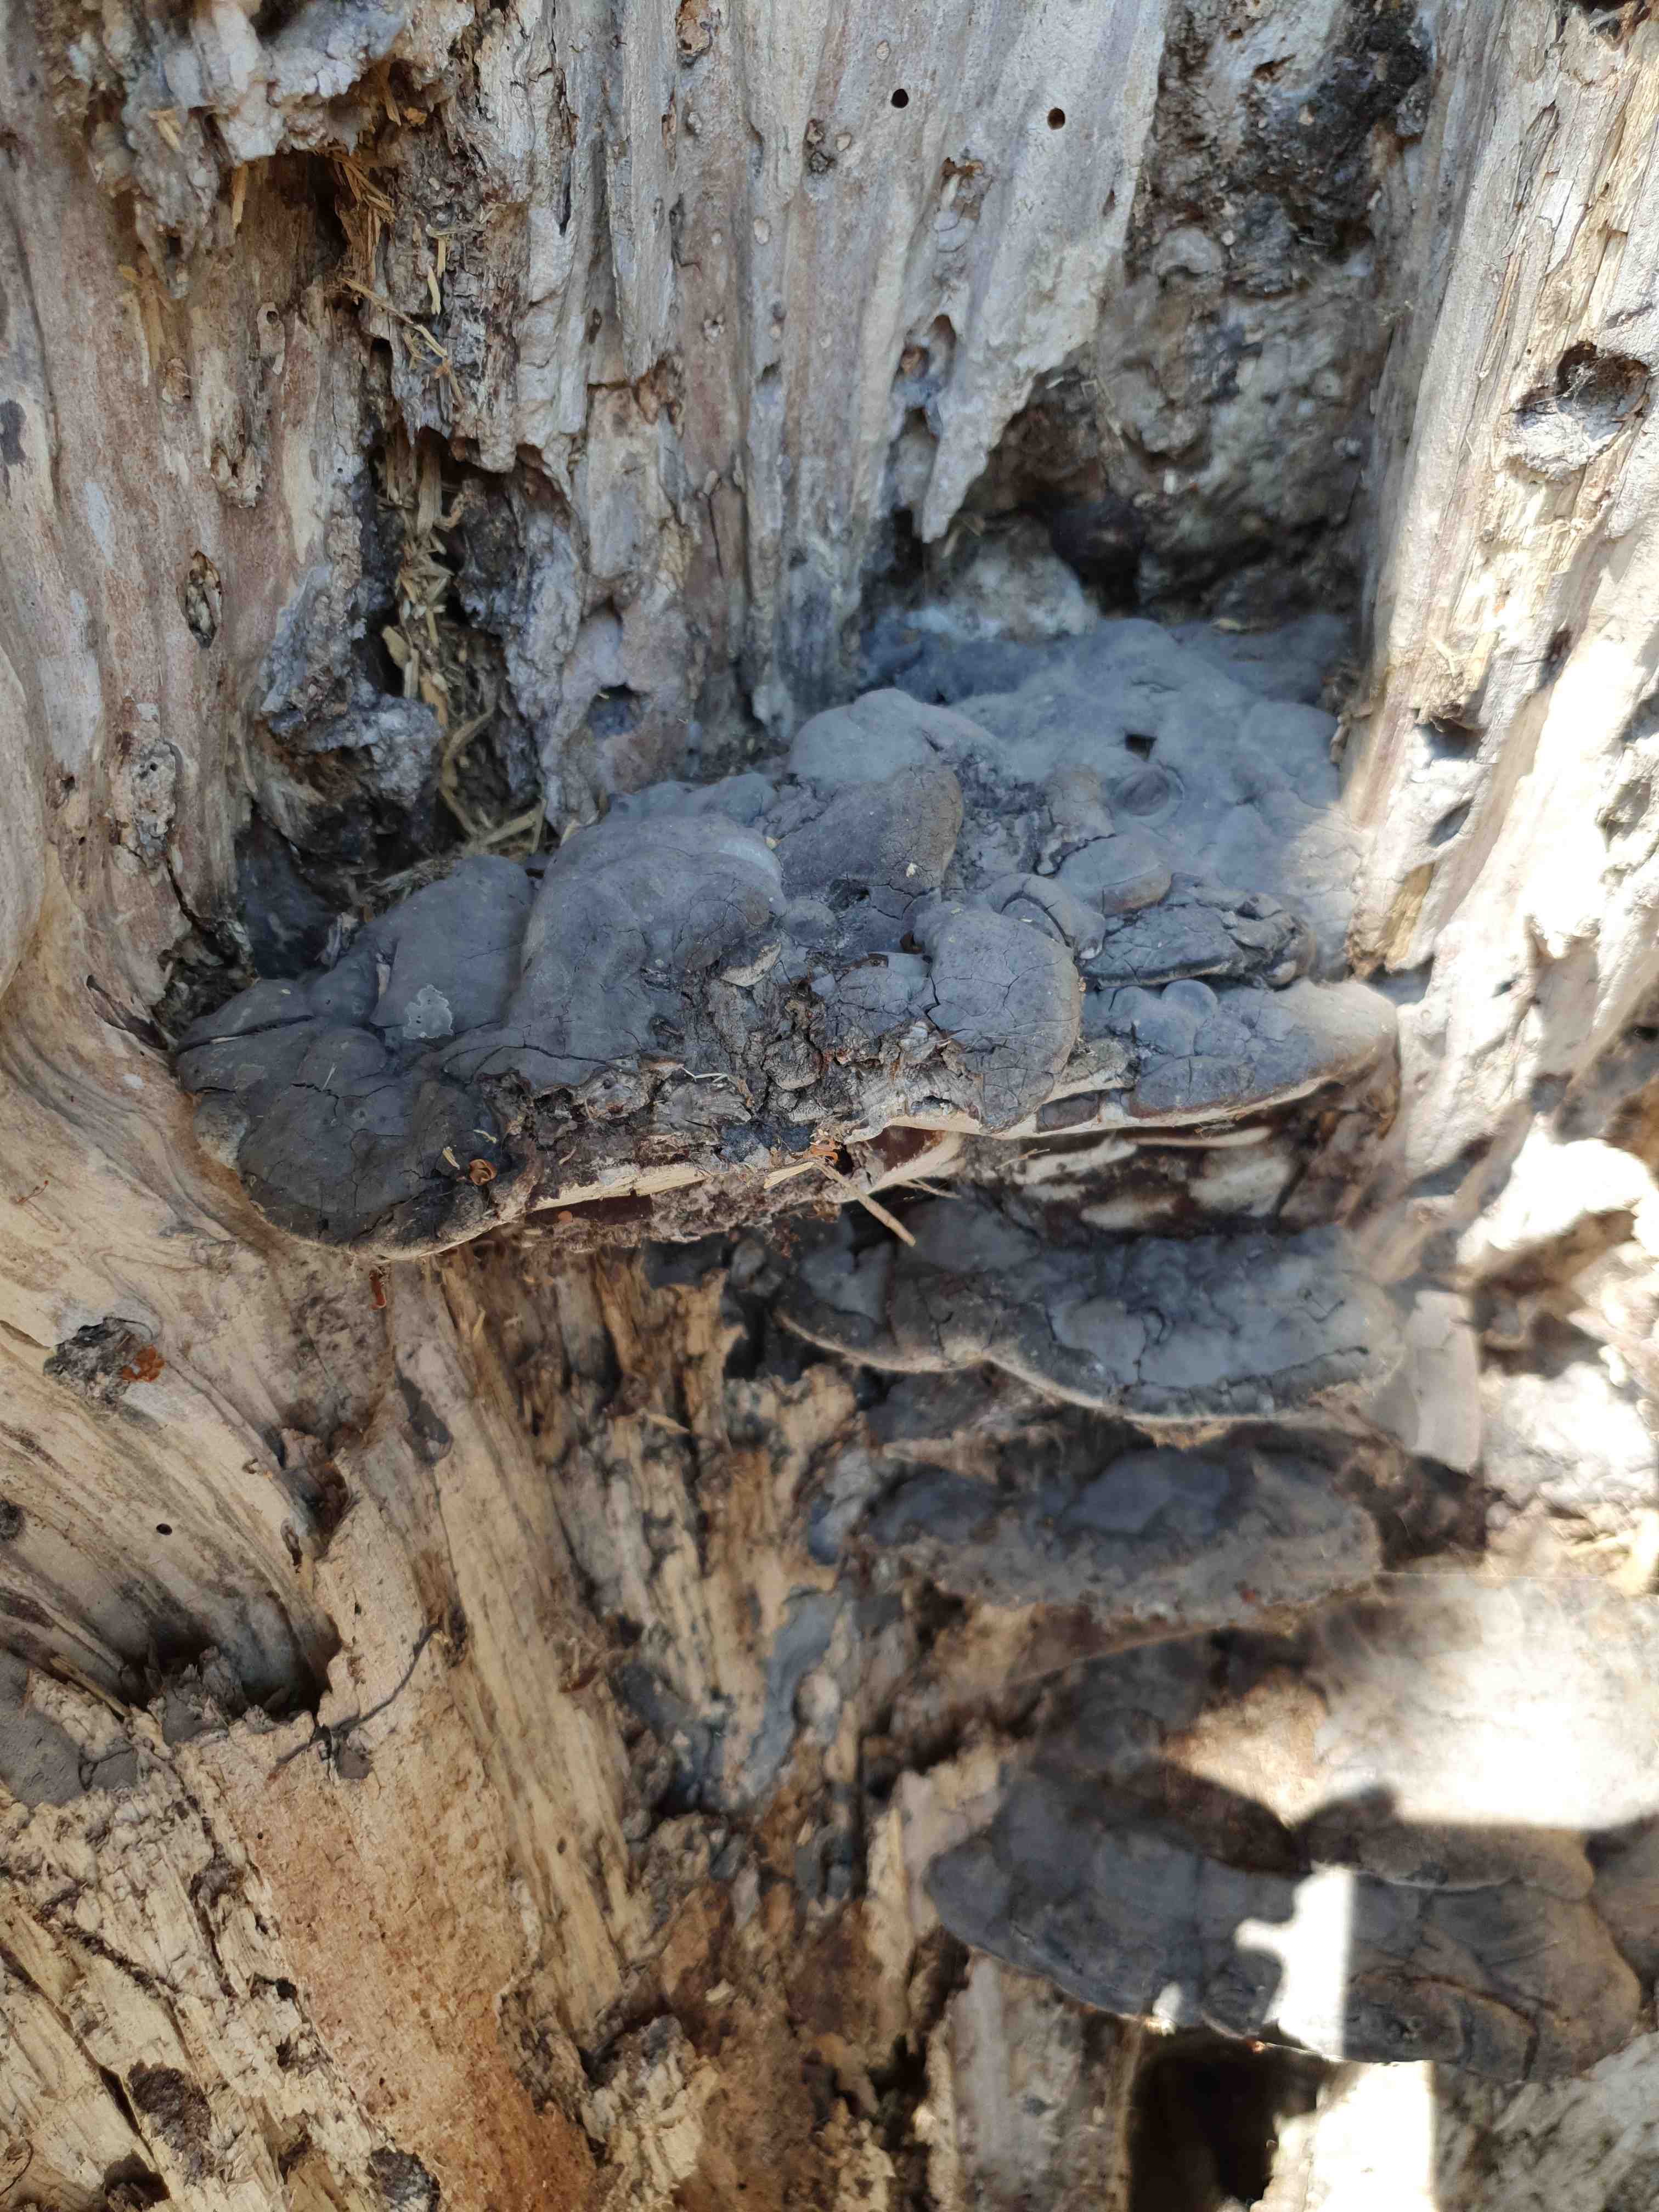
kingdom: Fungi
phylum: Basidiomycota
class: Agaricomycetes
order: Polyporales
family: Polyporaceae
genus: Ganoderma
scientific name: Ganoderma adspersum
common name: grov lakporesvamp
